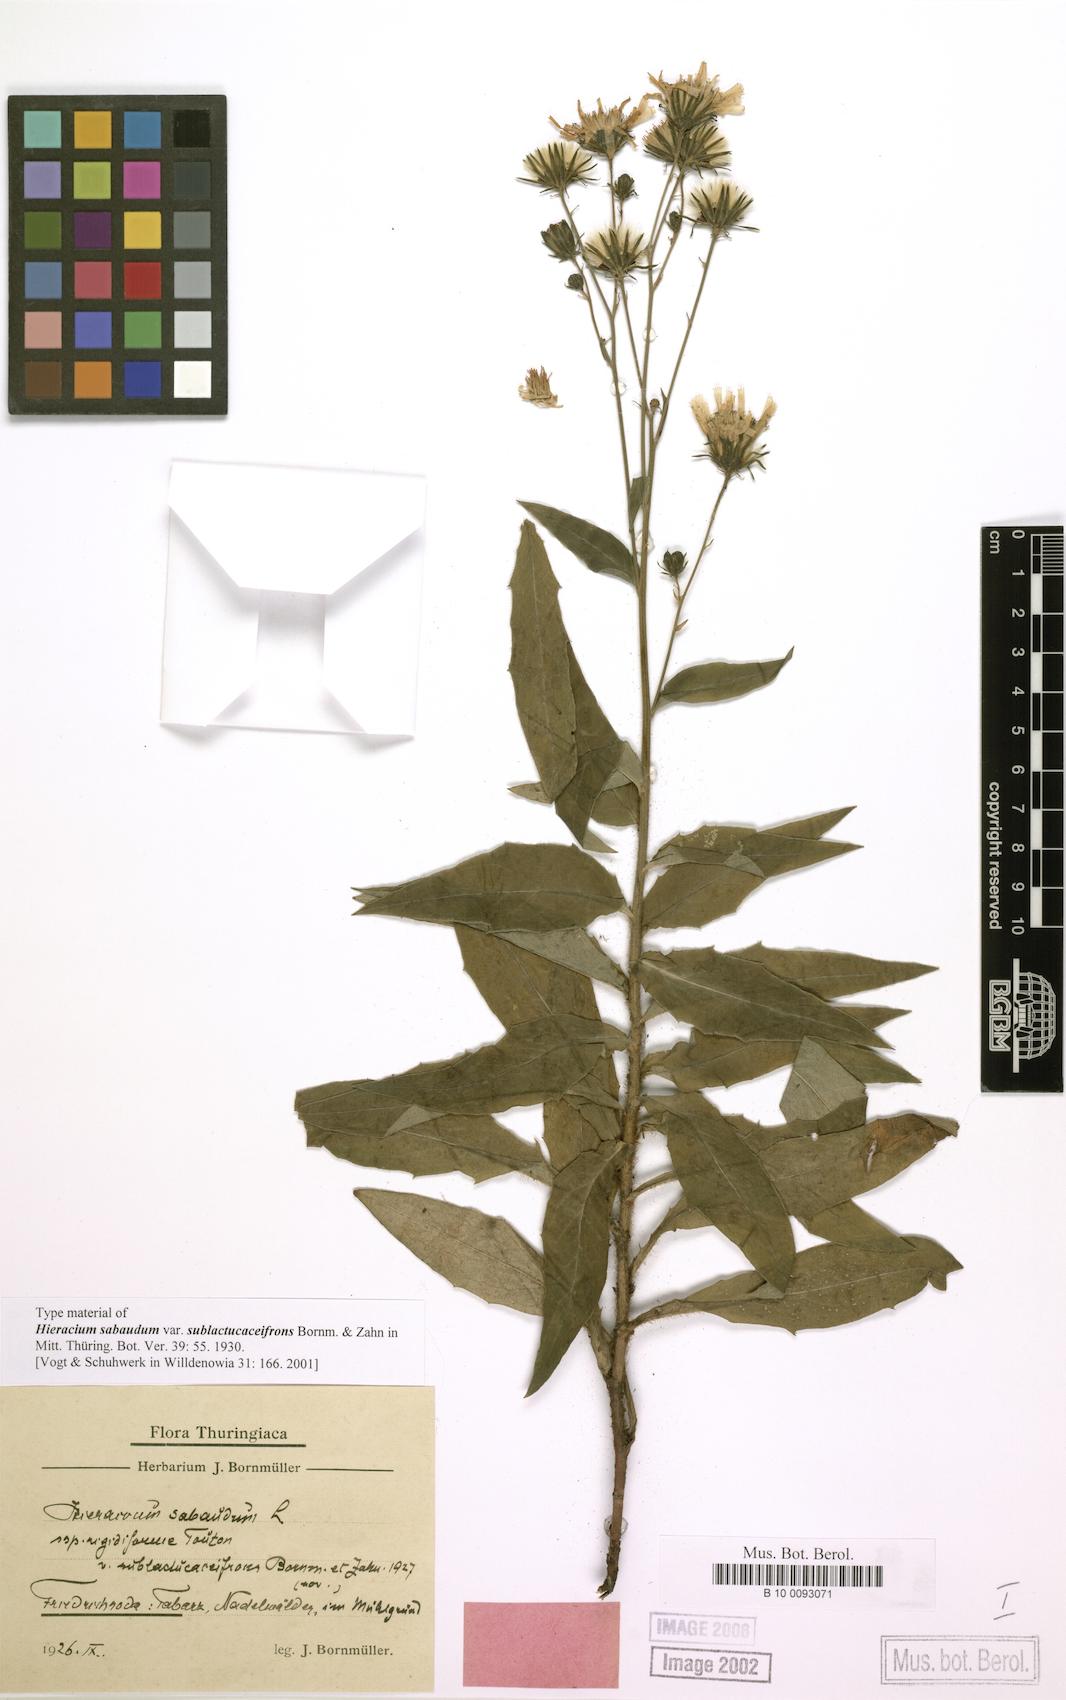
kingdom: Plantae
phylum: Tracheophyta
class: Magnoliopsida
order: Asterales
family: Asteraceae
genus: Hieracium
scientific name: Hieracium sabaudum
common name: New england hawkweed
